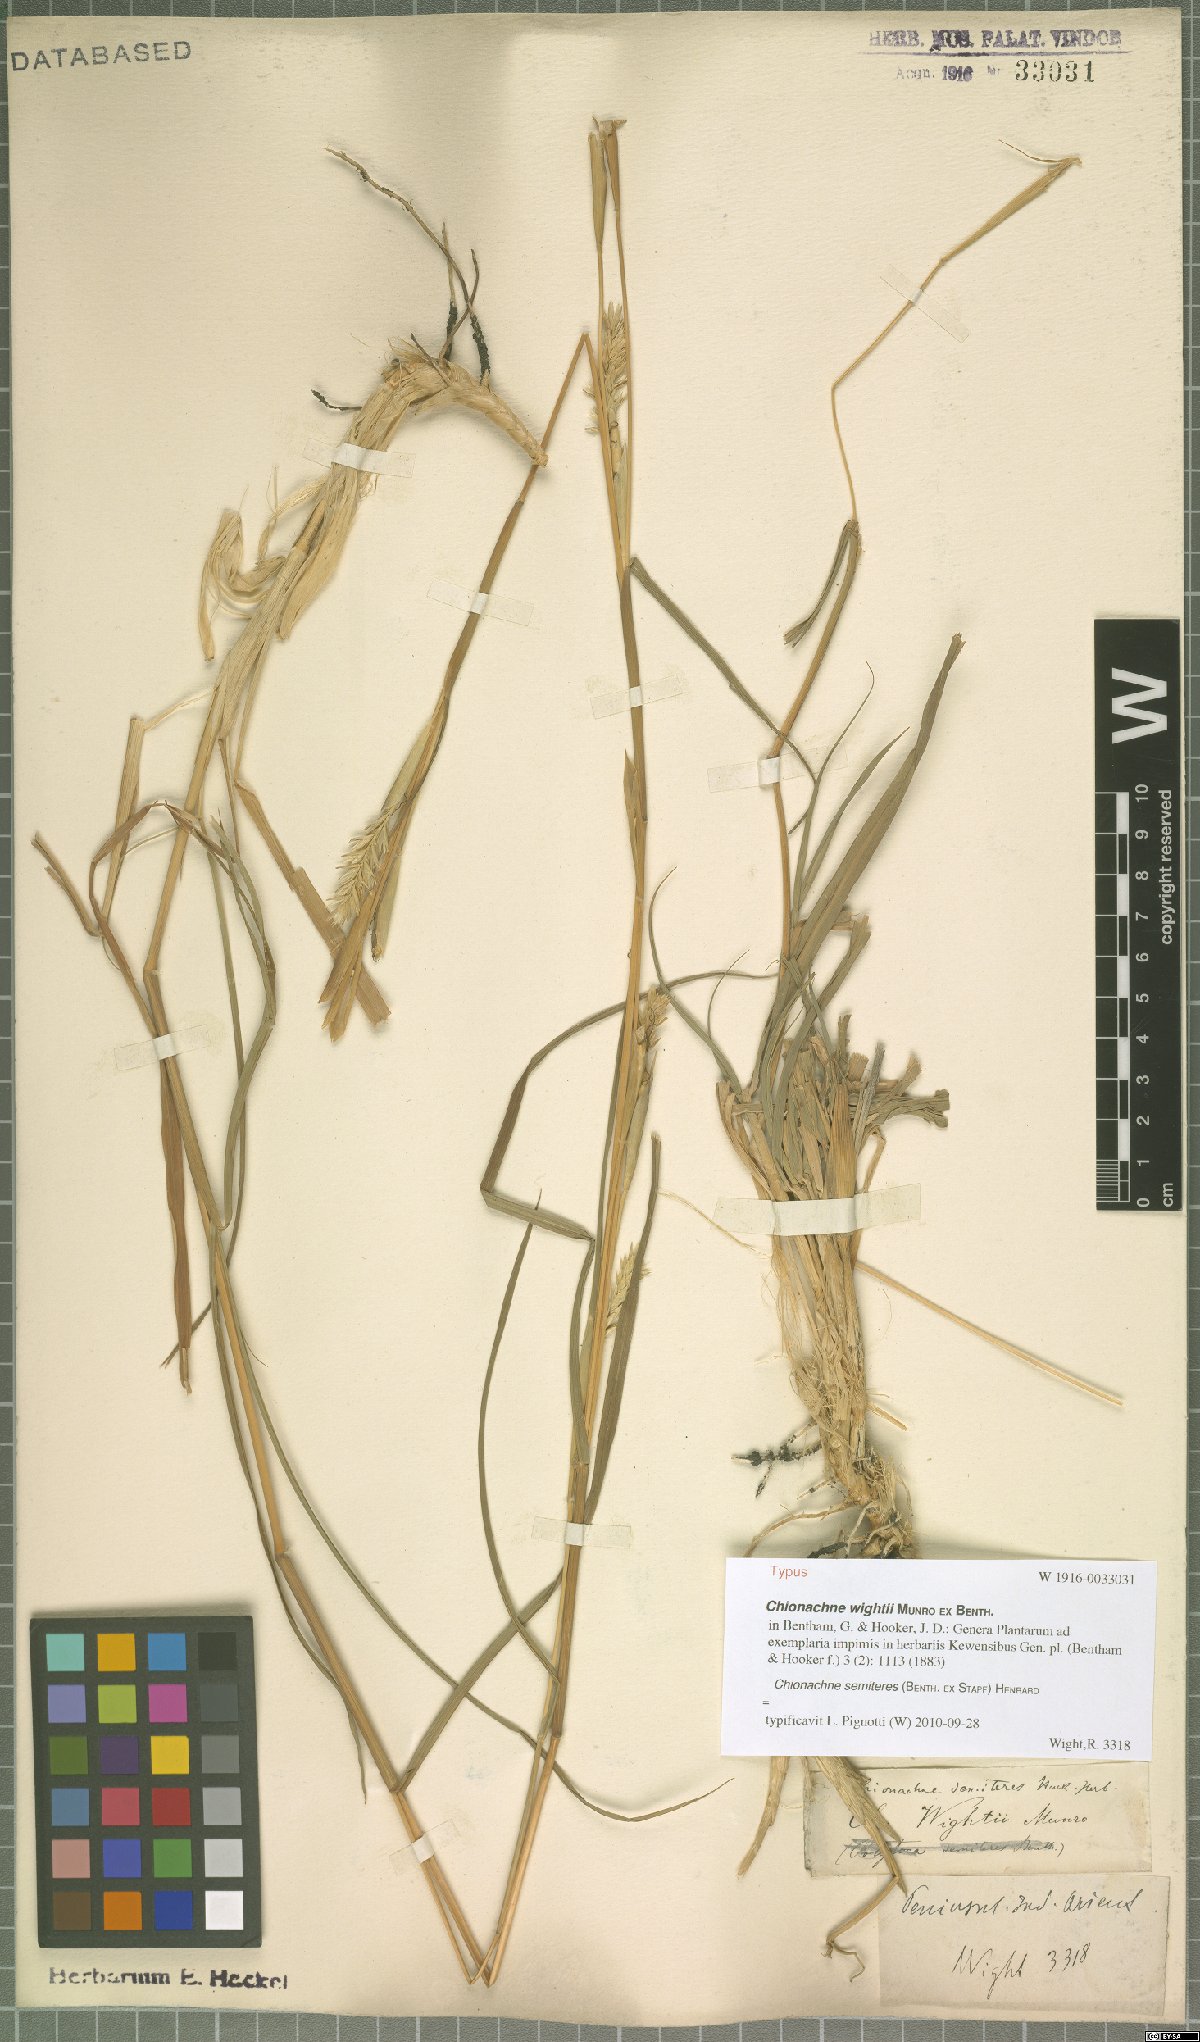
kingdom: Plantae
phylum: Tracheophyta
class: Liliopsida
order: Poales
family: Poaceae
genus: Polytoca
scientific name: Polytoca semiteres
